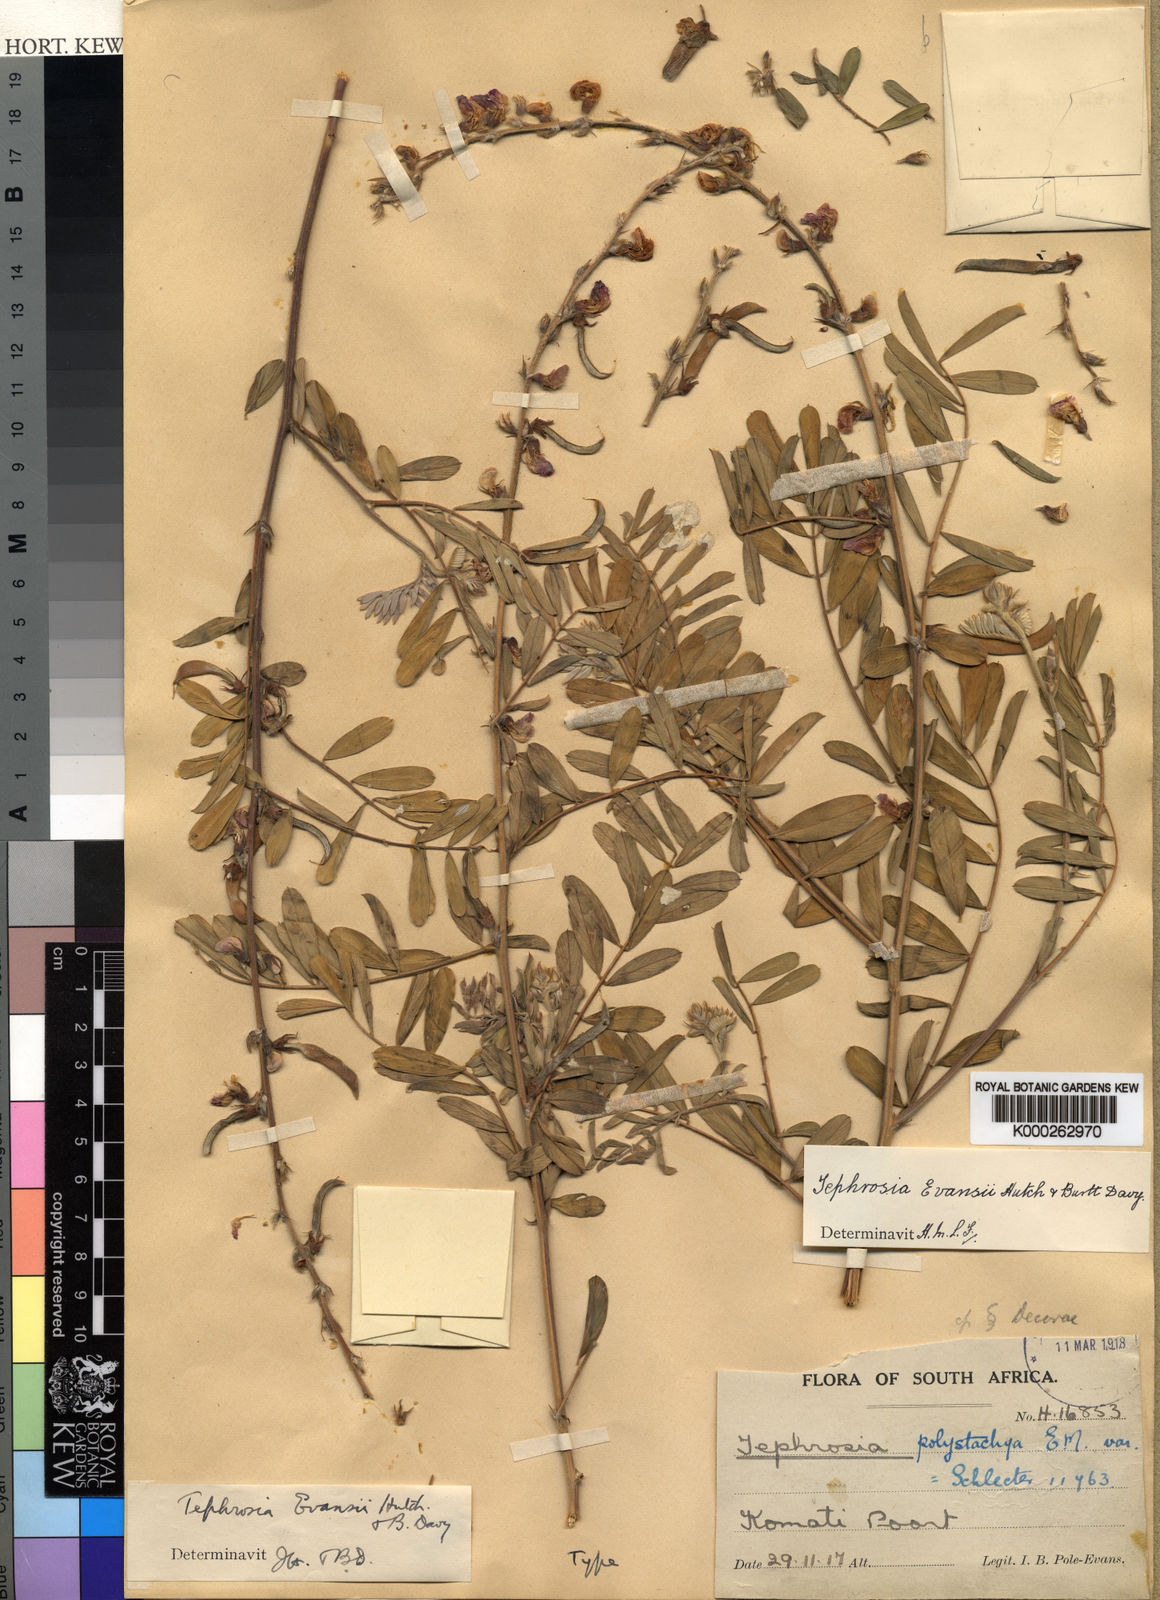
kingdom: Plantae
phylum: Tracheophyta
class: Magnoliopsida
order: Fabales
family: Fabaceae
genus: Tephrosia
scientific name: Tephrosia polystachya
